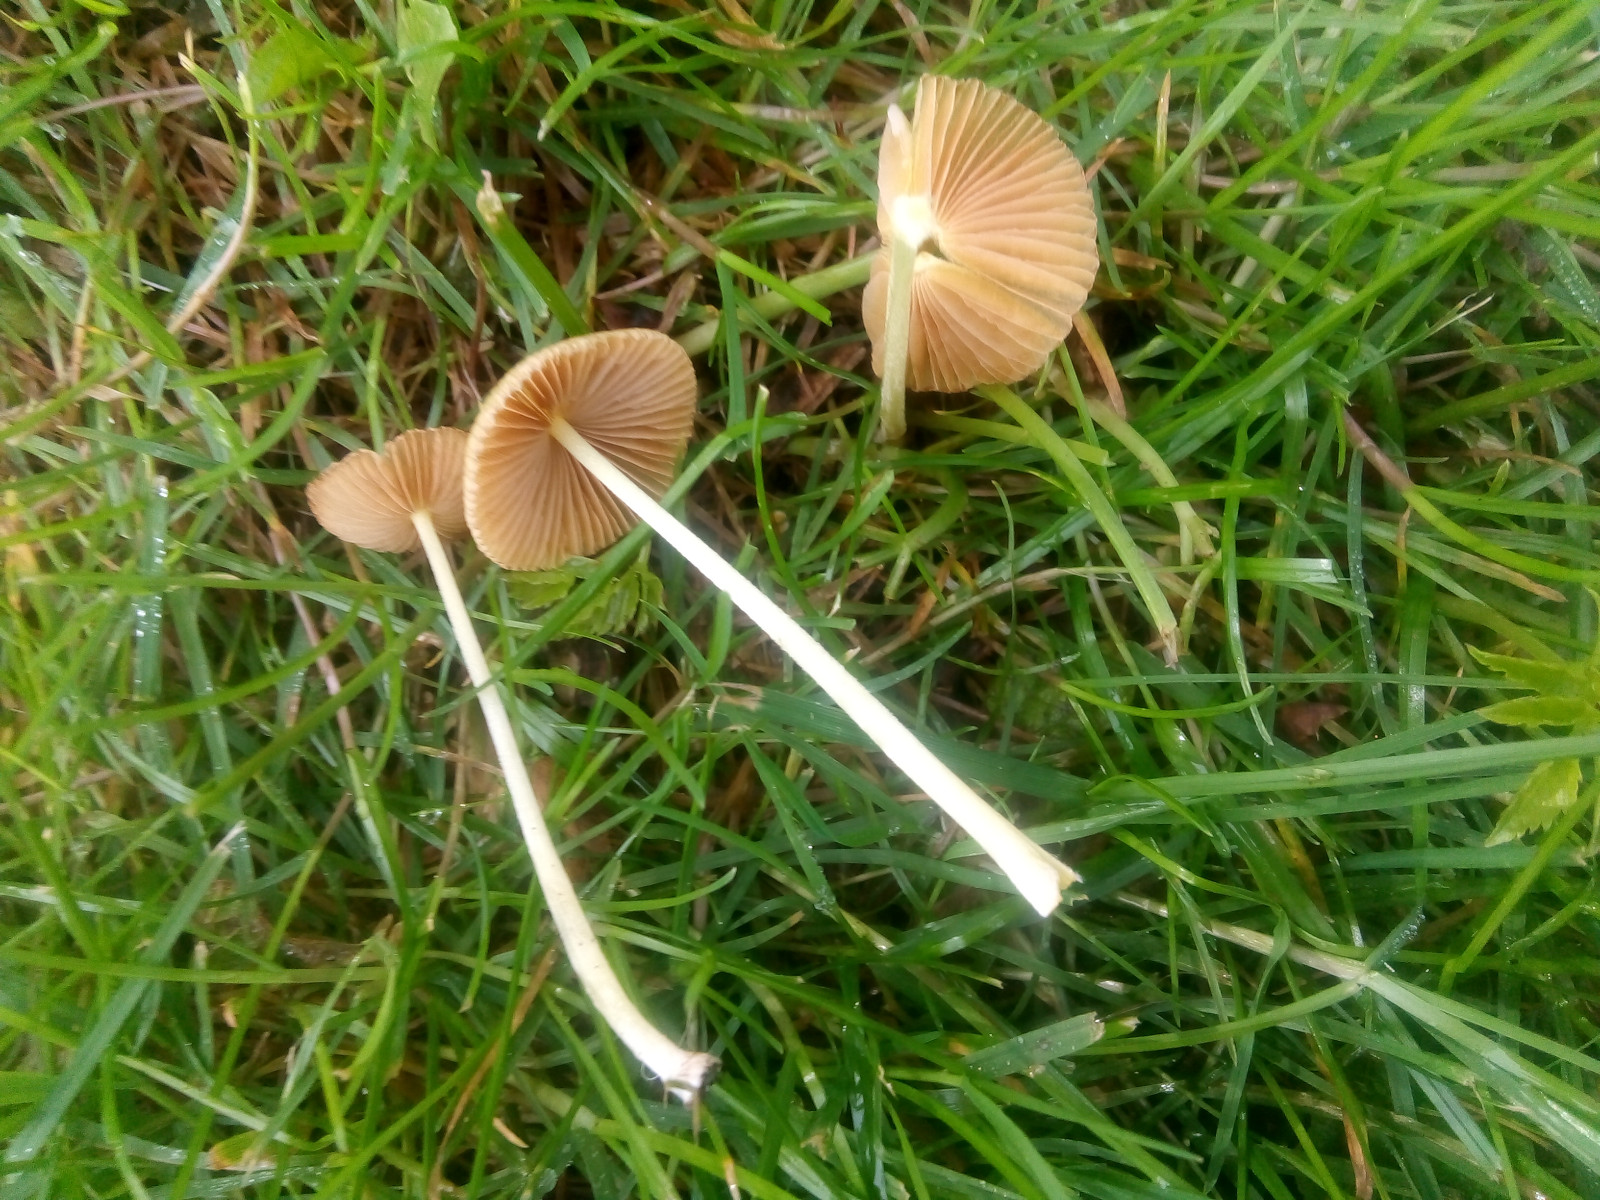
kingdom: Fungi
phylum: Basidiomycota
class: Agaricomycetes
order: Agaricales
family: Bolbitiaceae
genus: Bolbitius
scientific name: Bolbitius titubans
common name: almindelig gulhat
